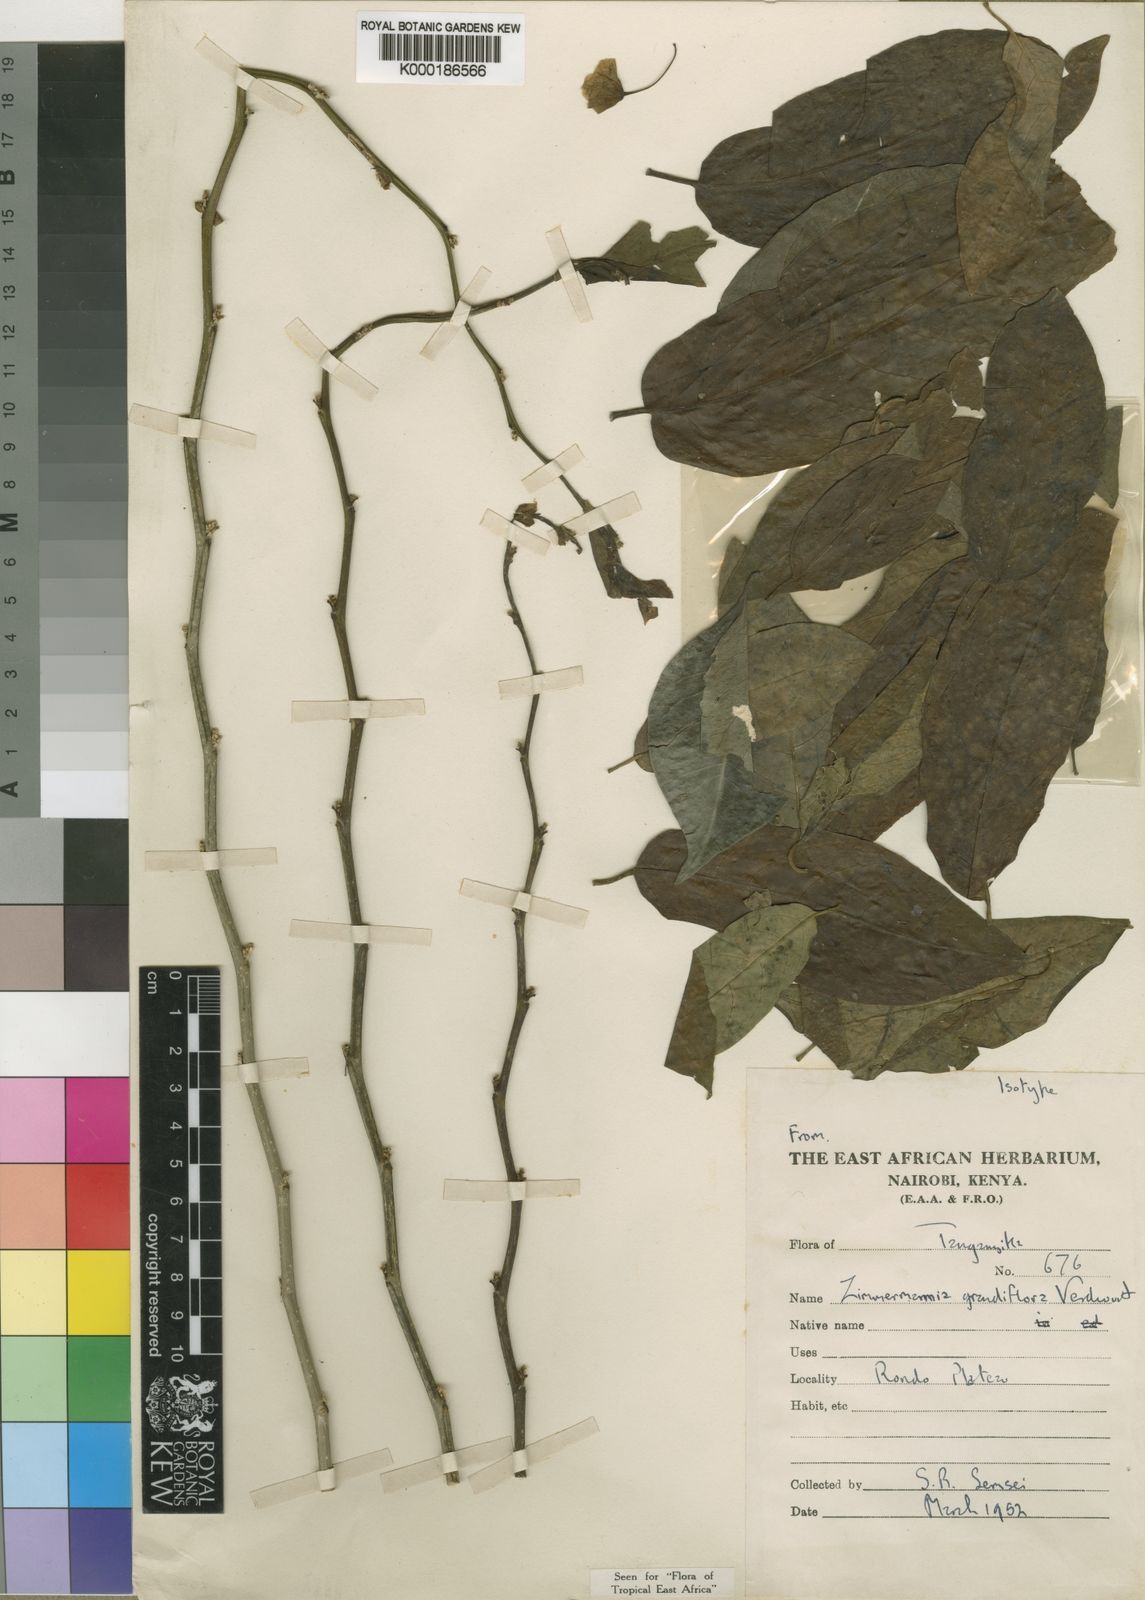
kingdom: Plantae
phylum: Tracheophyta
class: Magnoliopsida
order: Malpighiales
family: Phyllanthaceae
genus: Meineckia
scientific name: Meineckia grandiflora
